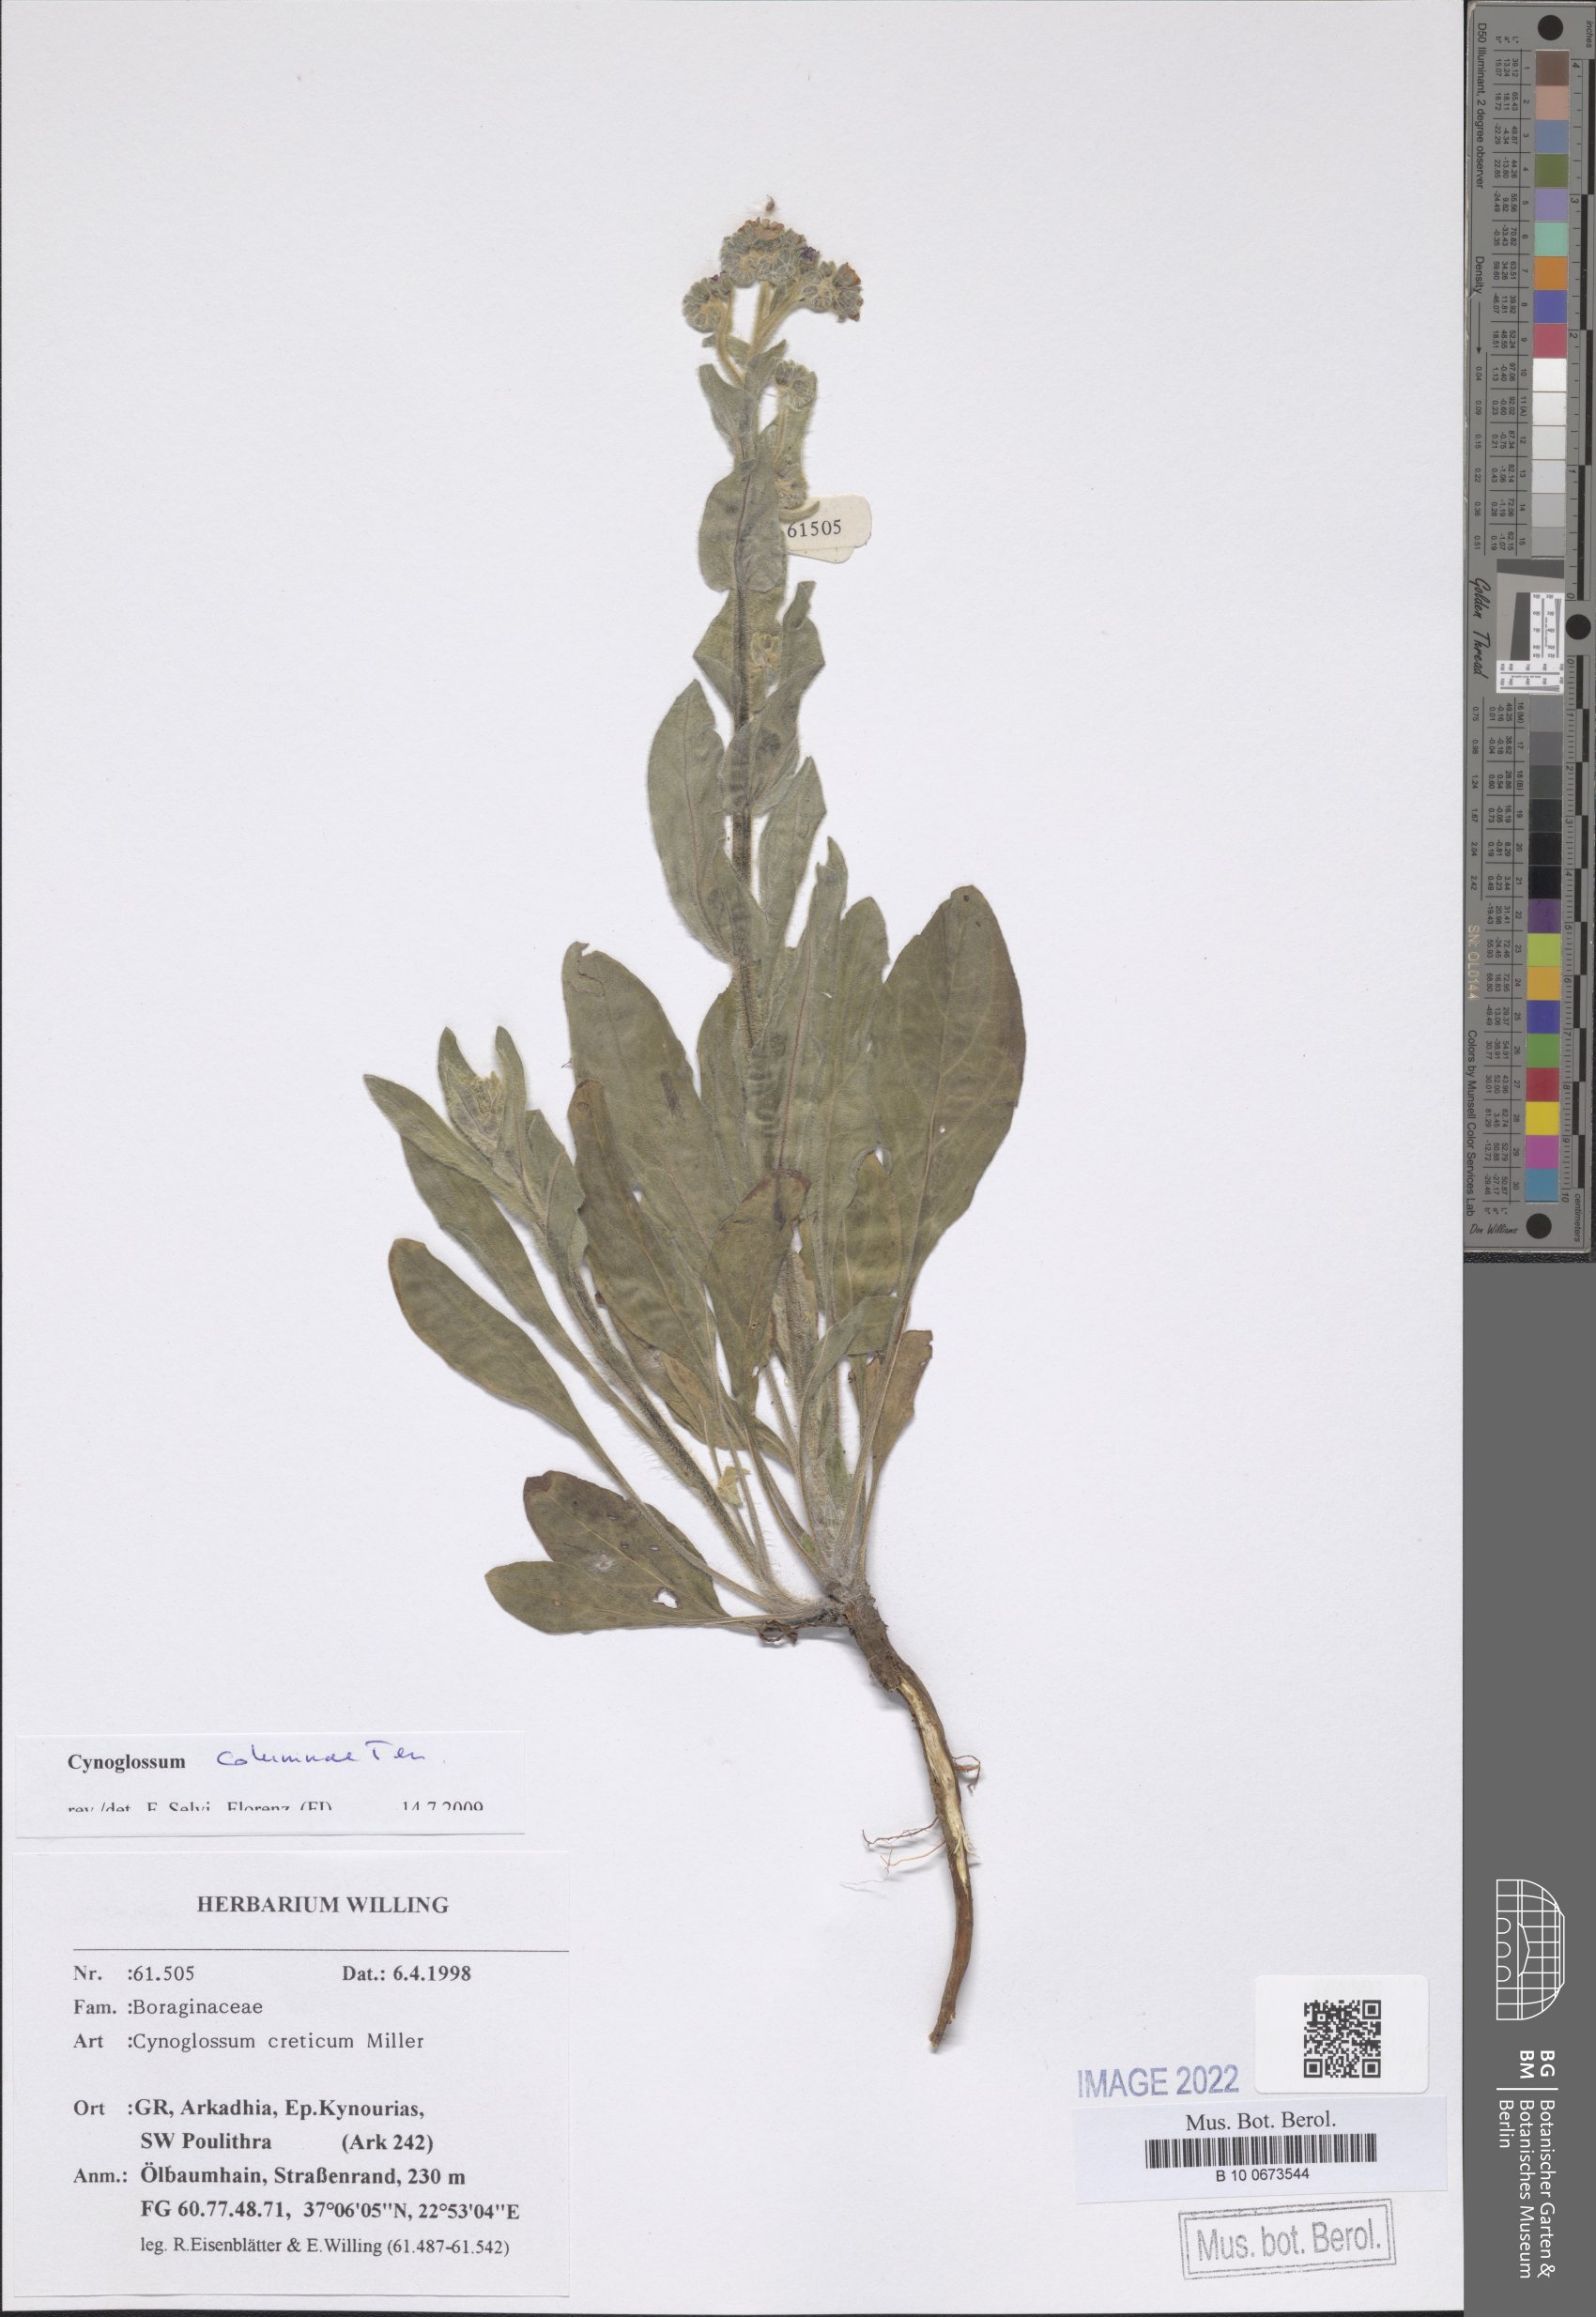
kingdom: Plantae
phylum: Tracheophyta
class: Magnoliopsida
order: Boraginales
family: Boraginaceae
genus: Rindera
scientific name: Rindera columnae
